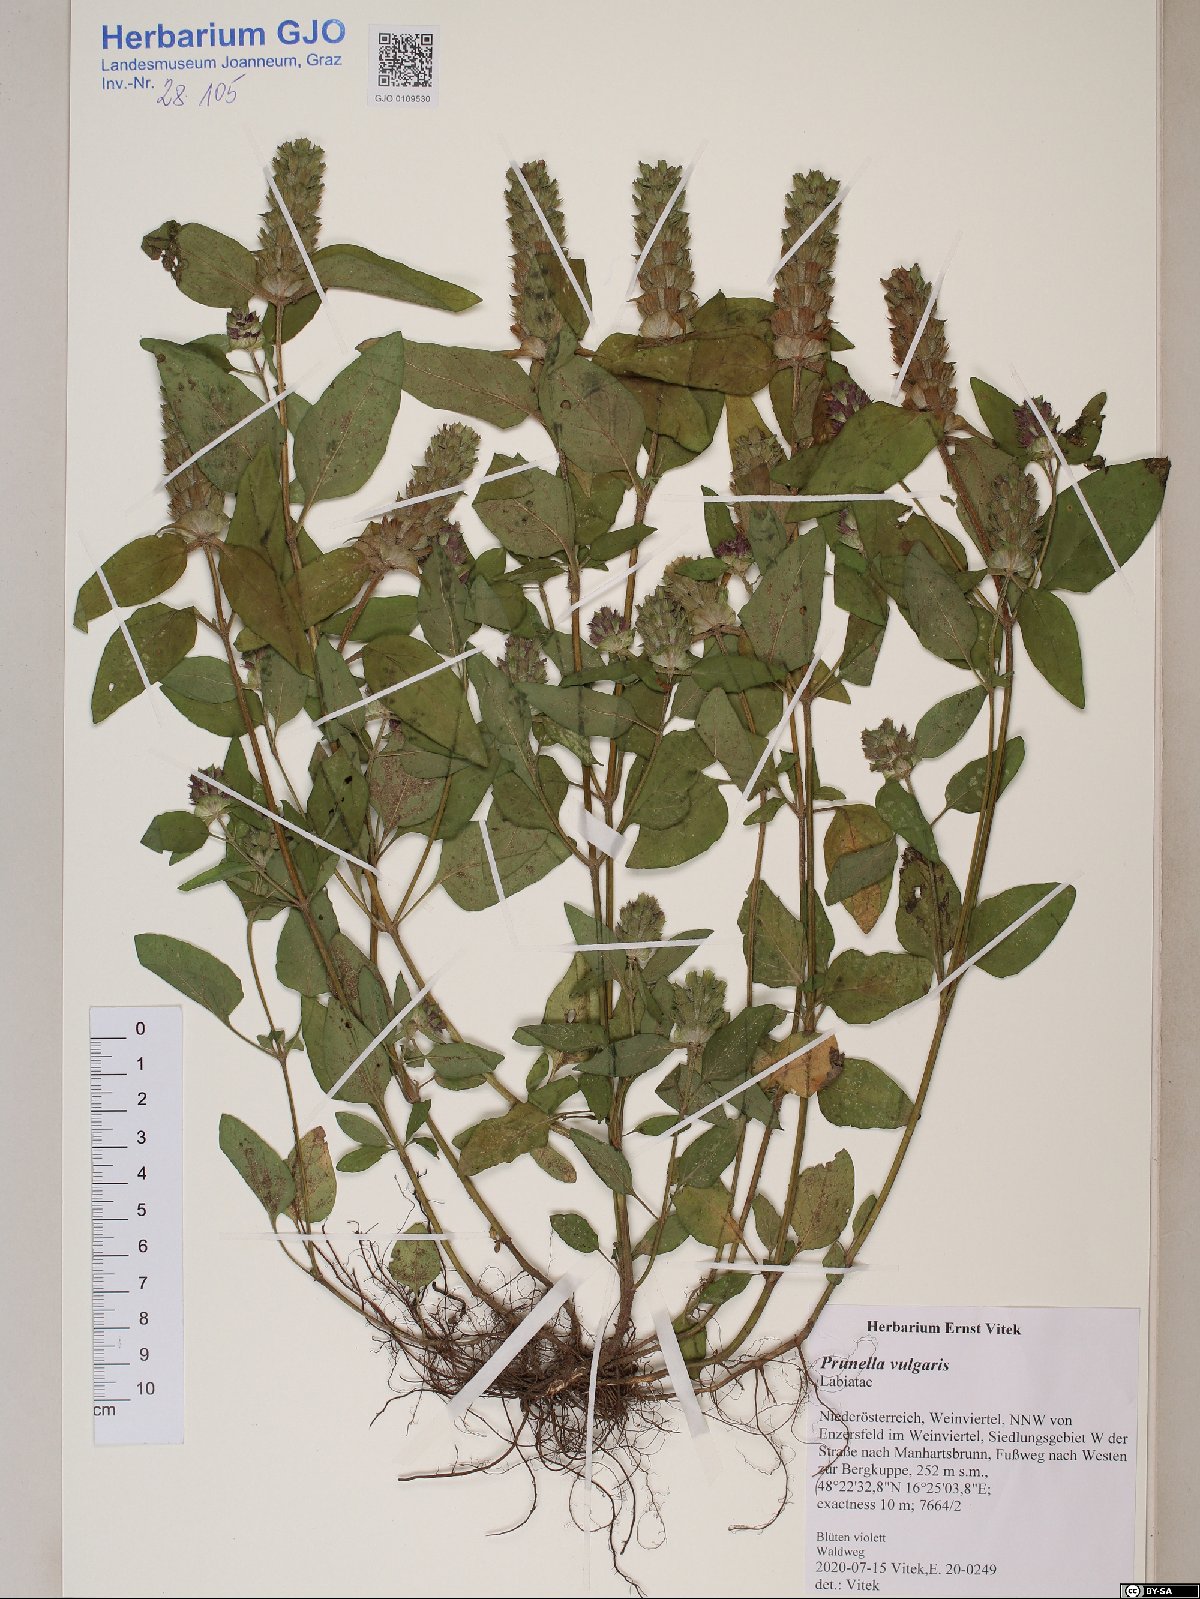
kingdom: Plantae
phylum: Tracheophyta
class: Magnoliopsida
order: Lamiales
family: Lamiaceae
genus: Prunella
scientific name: Prunella vulgaris
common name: Heal-all
